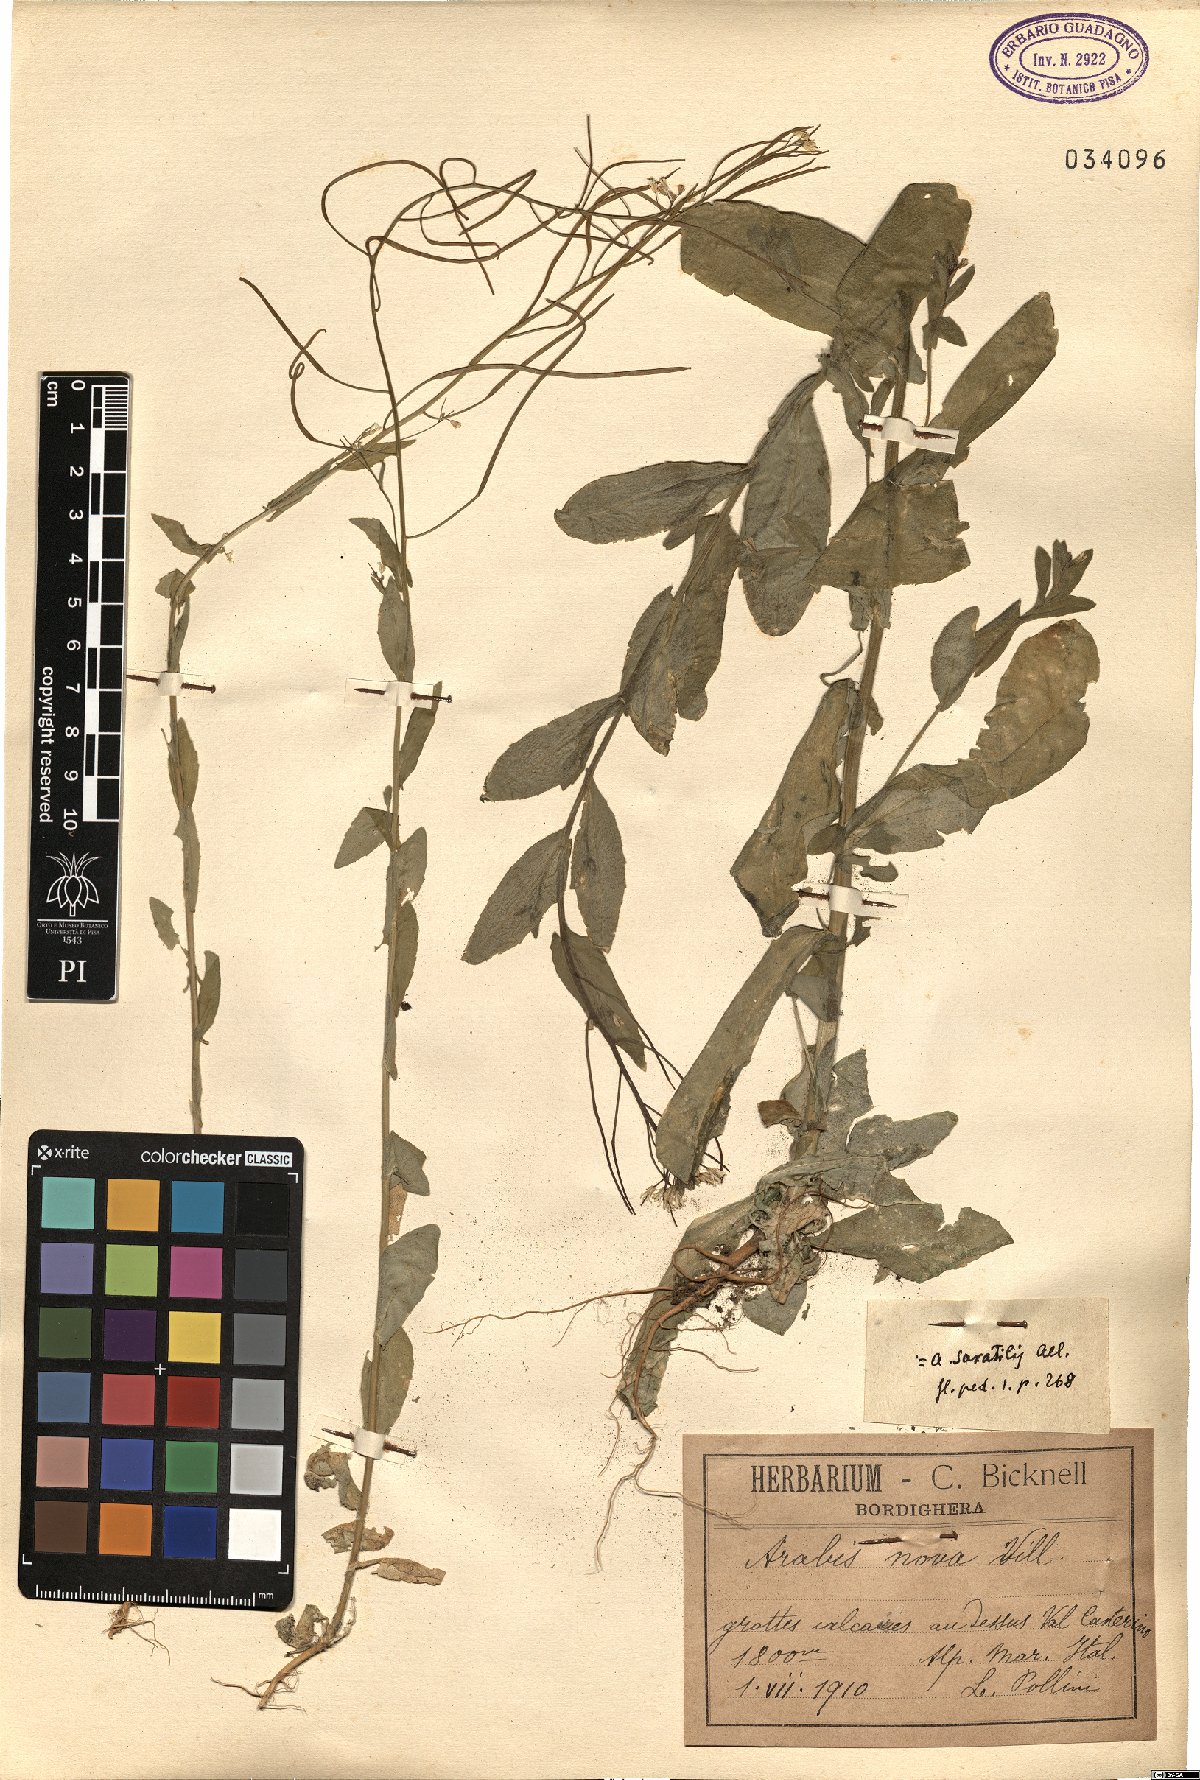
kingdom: Plantae
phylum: Tracheophyta
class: Magnoliopsida
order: Brassicales
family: Brassicaceae
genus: Arabis
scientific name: Arabis nova
